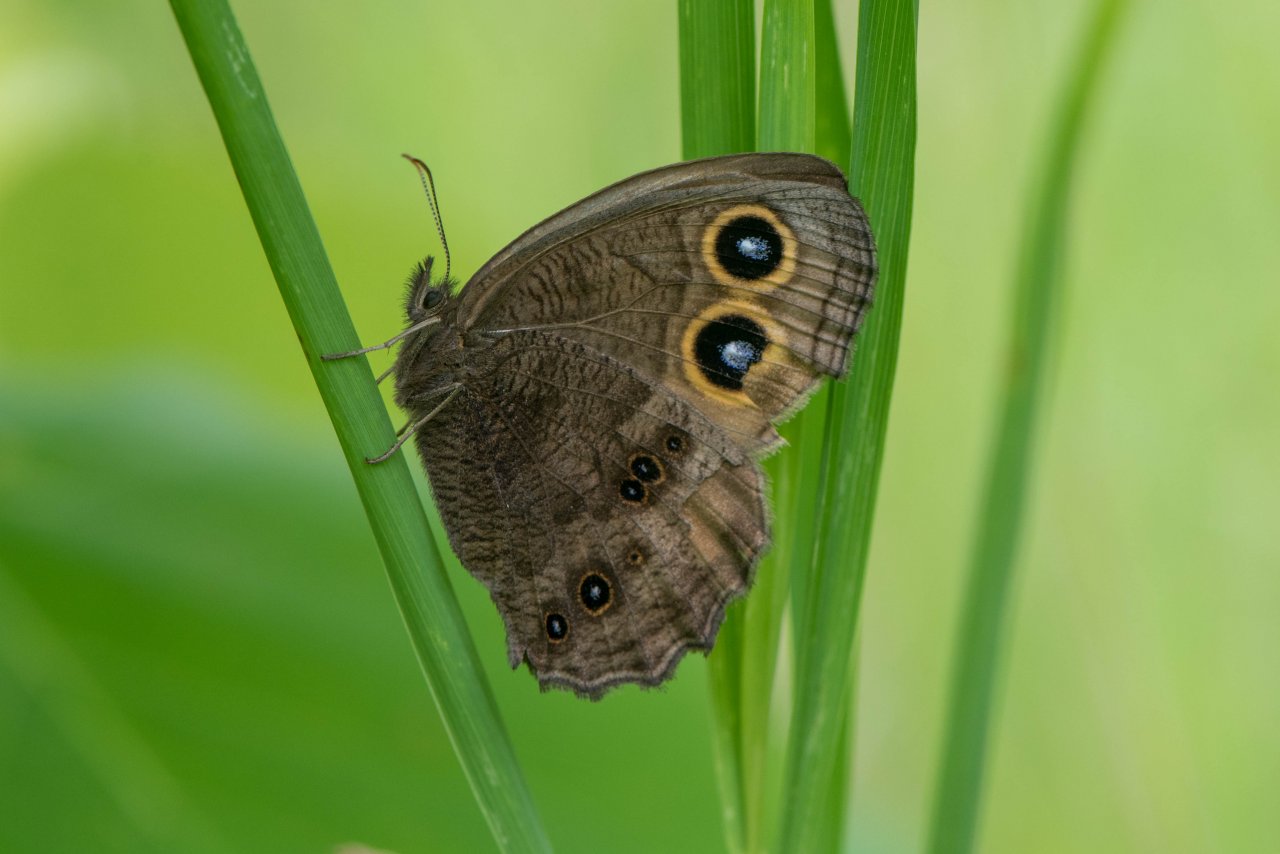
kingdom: Animalia
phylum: Arthropoda
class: Insecta
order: Lepidoptera
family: Nymphalidae
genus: Cercyonis
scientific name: Cercyonis pegala
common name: Common Wood-Nymph
